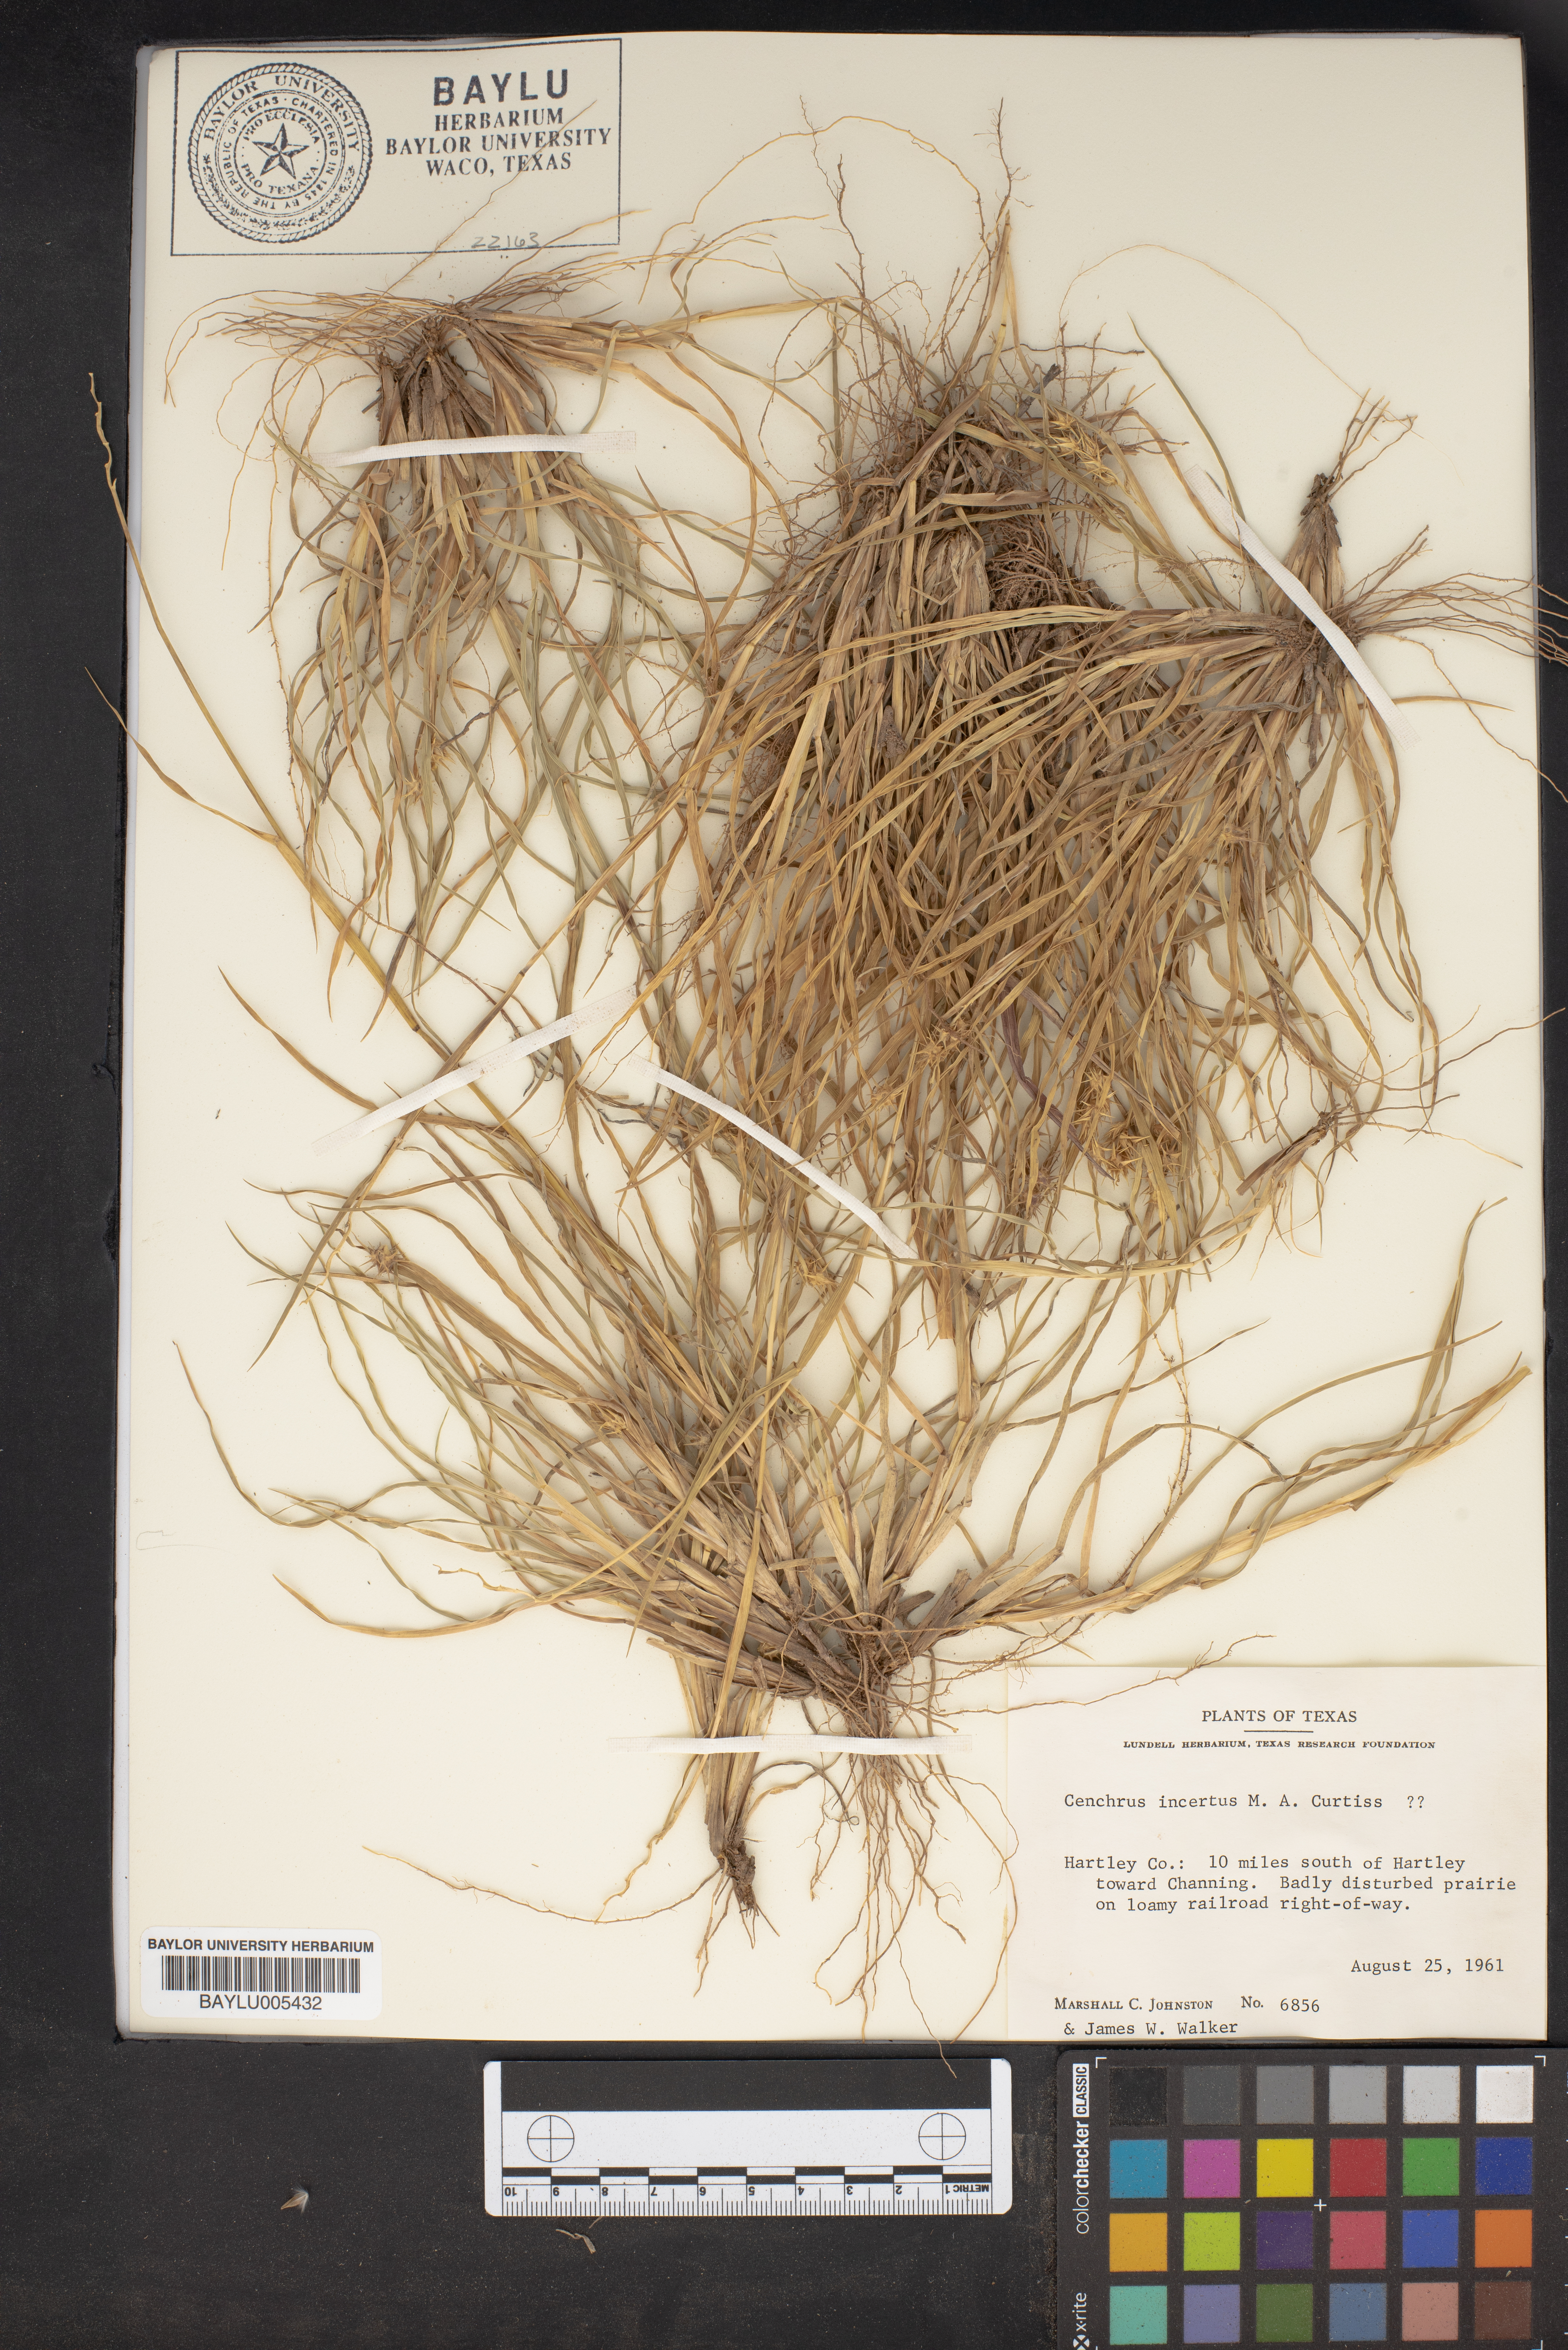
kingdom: Plantae
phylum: Tracheophyta
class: Liliopsida
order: Poales
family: Poaceae
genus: Cenchrus
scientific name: Cenchrus spinifex
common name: Coast sandbur
